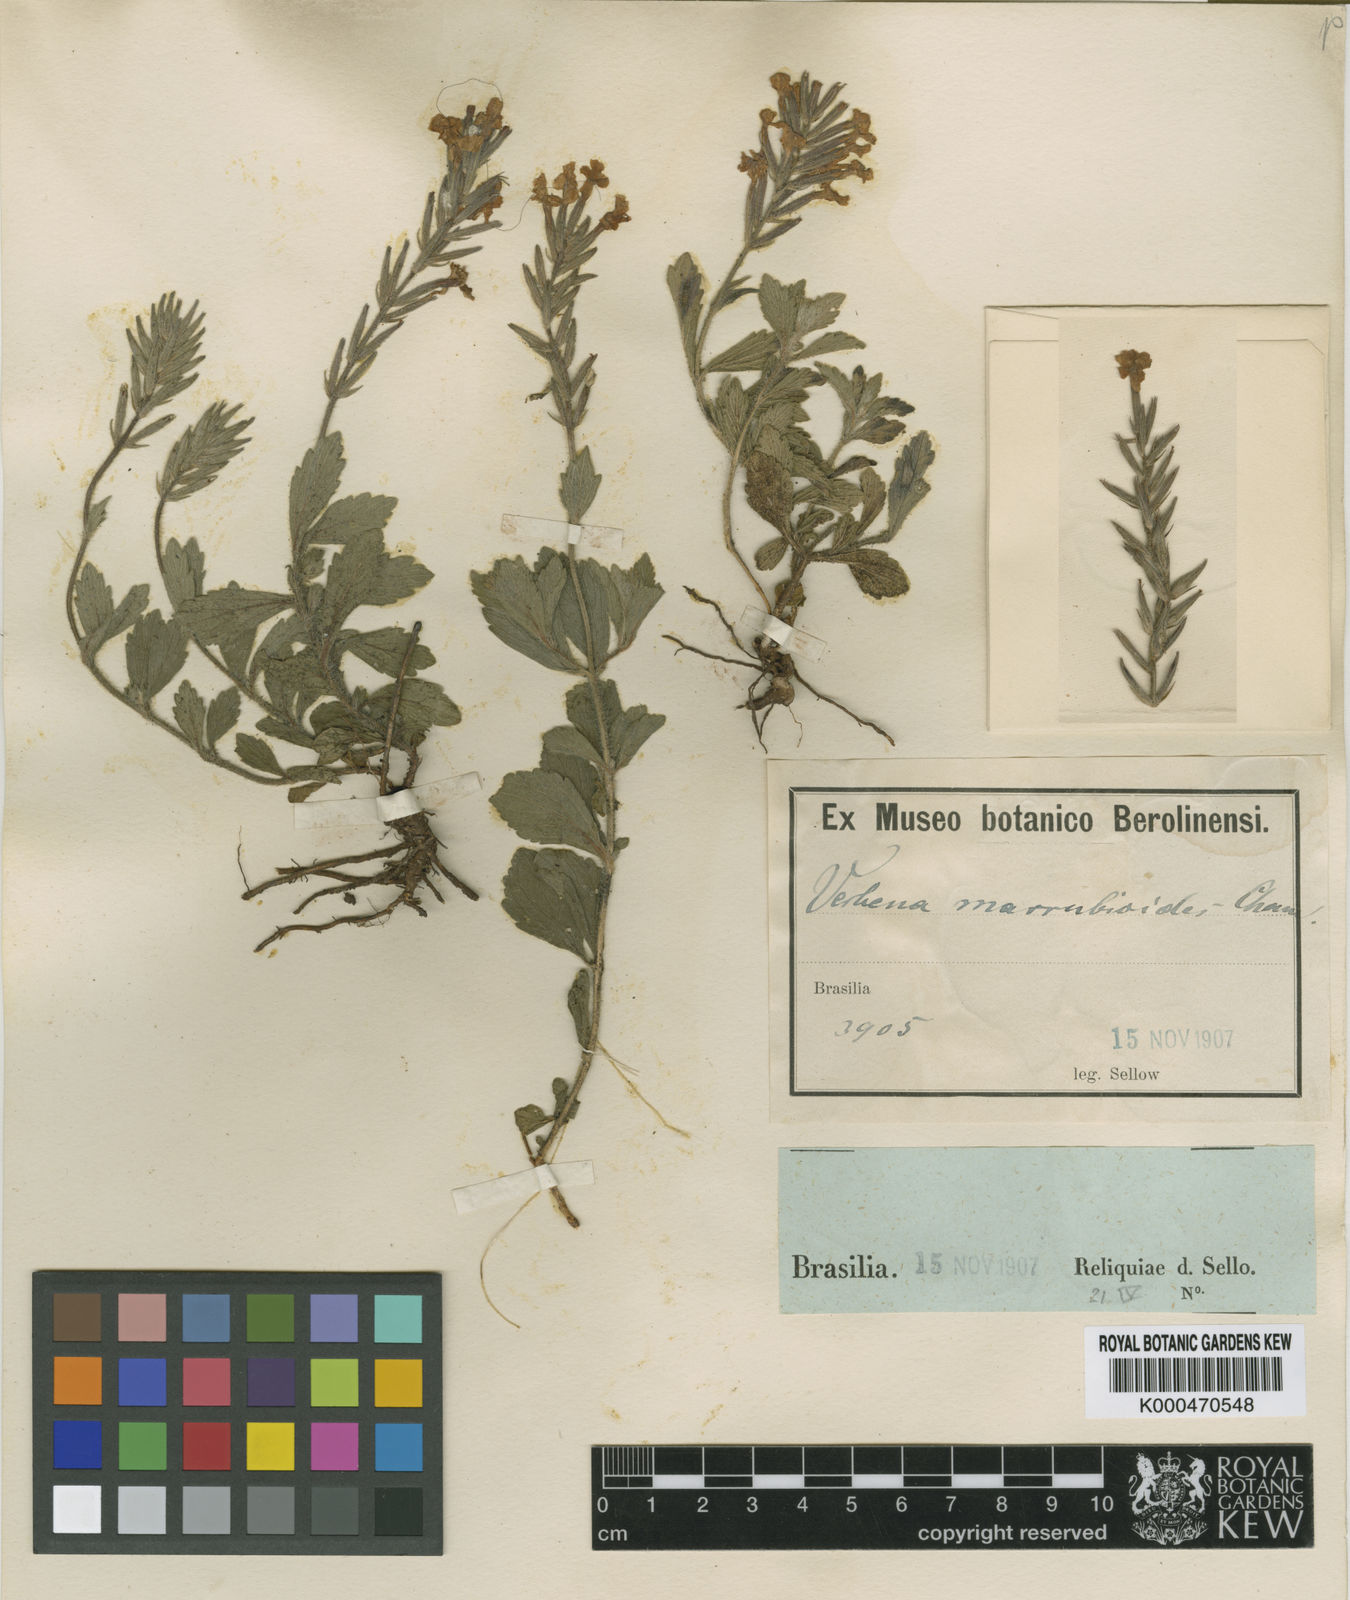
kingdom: Plantae
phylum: Tracheophyta
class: Magnoliopsida
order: Lamiales
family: Verbenaceae
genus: Verbena
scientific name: Verbena marrubioides
